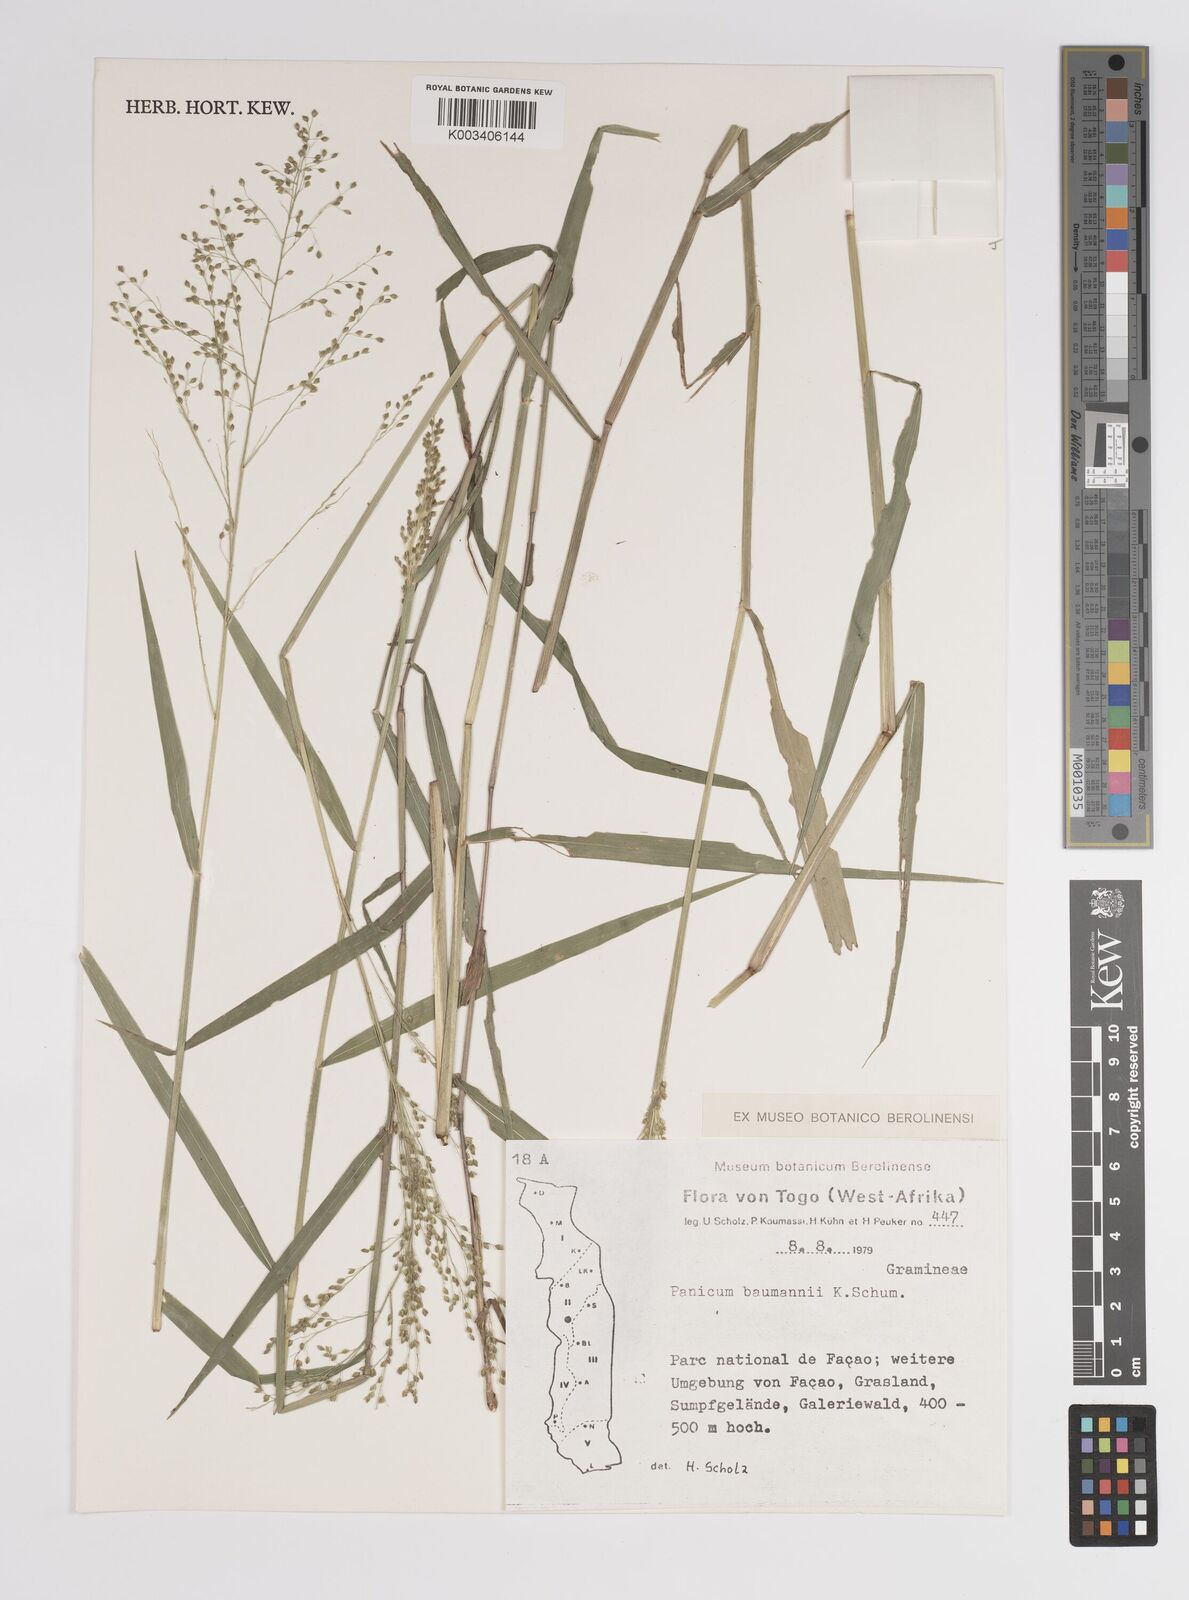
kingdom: Plantae
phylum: Tracheophyta
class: Liliopsida
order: Poales
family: Poaceae
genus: Trichanthecium
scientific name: Trichanthecium nervatum
